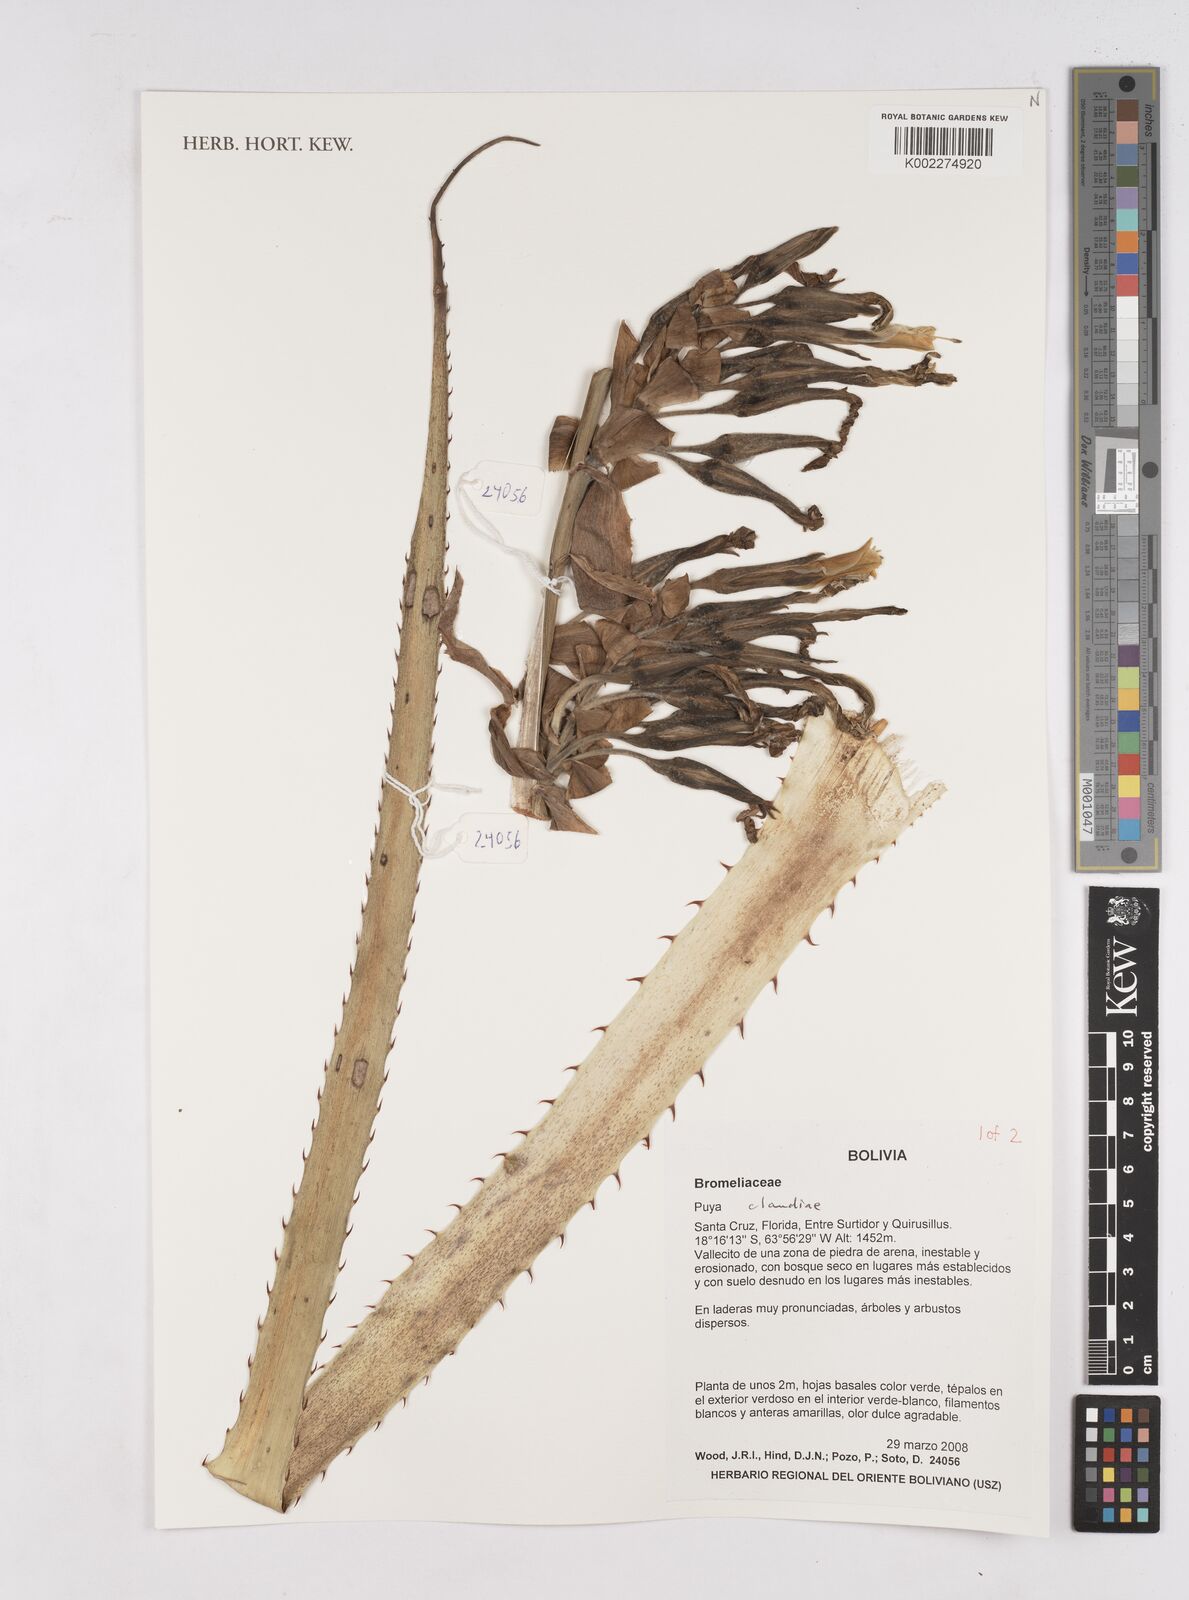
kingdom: Plantae
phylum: Tracheophyta
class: Liliopsida
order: Poales
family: Bromeliaceae
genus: Puya
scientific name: Puya
